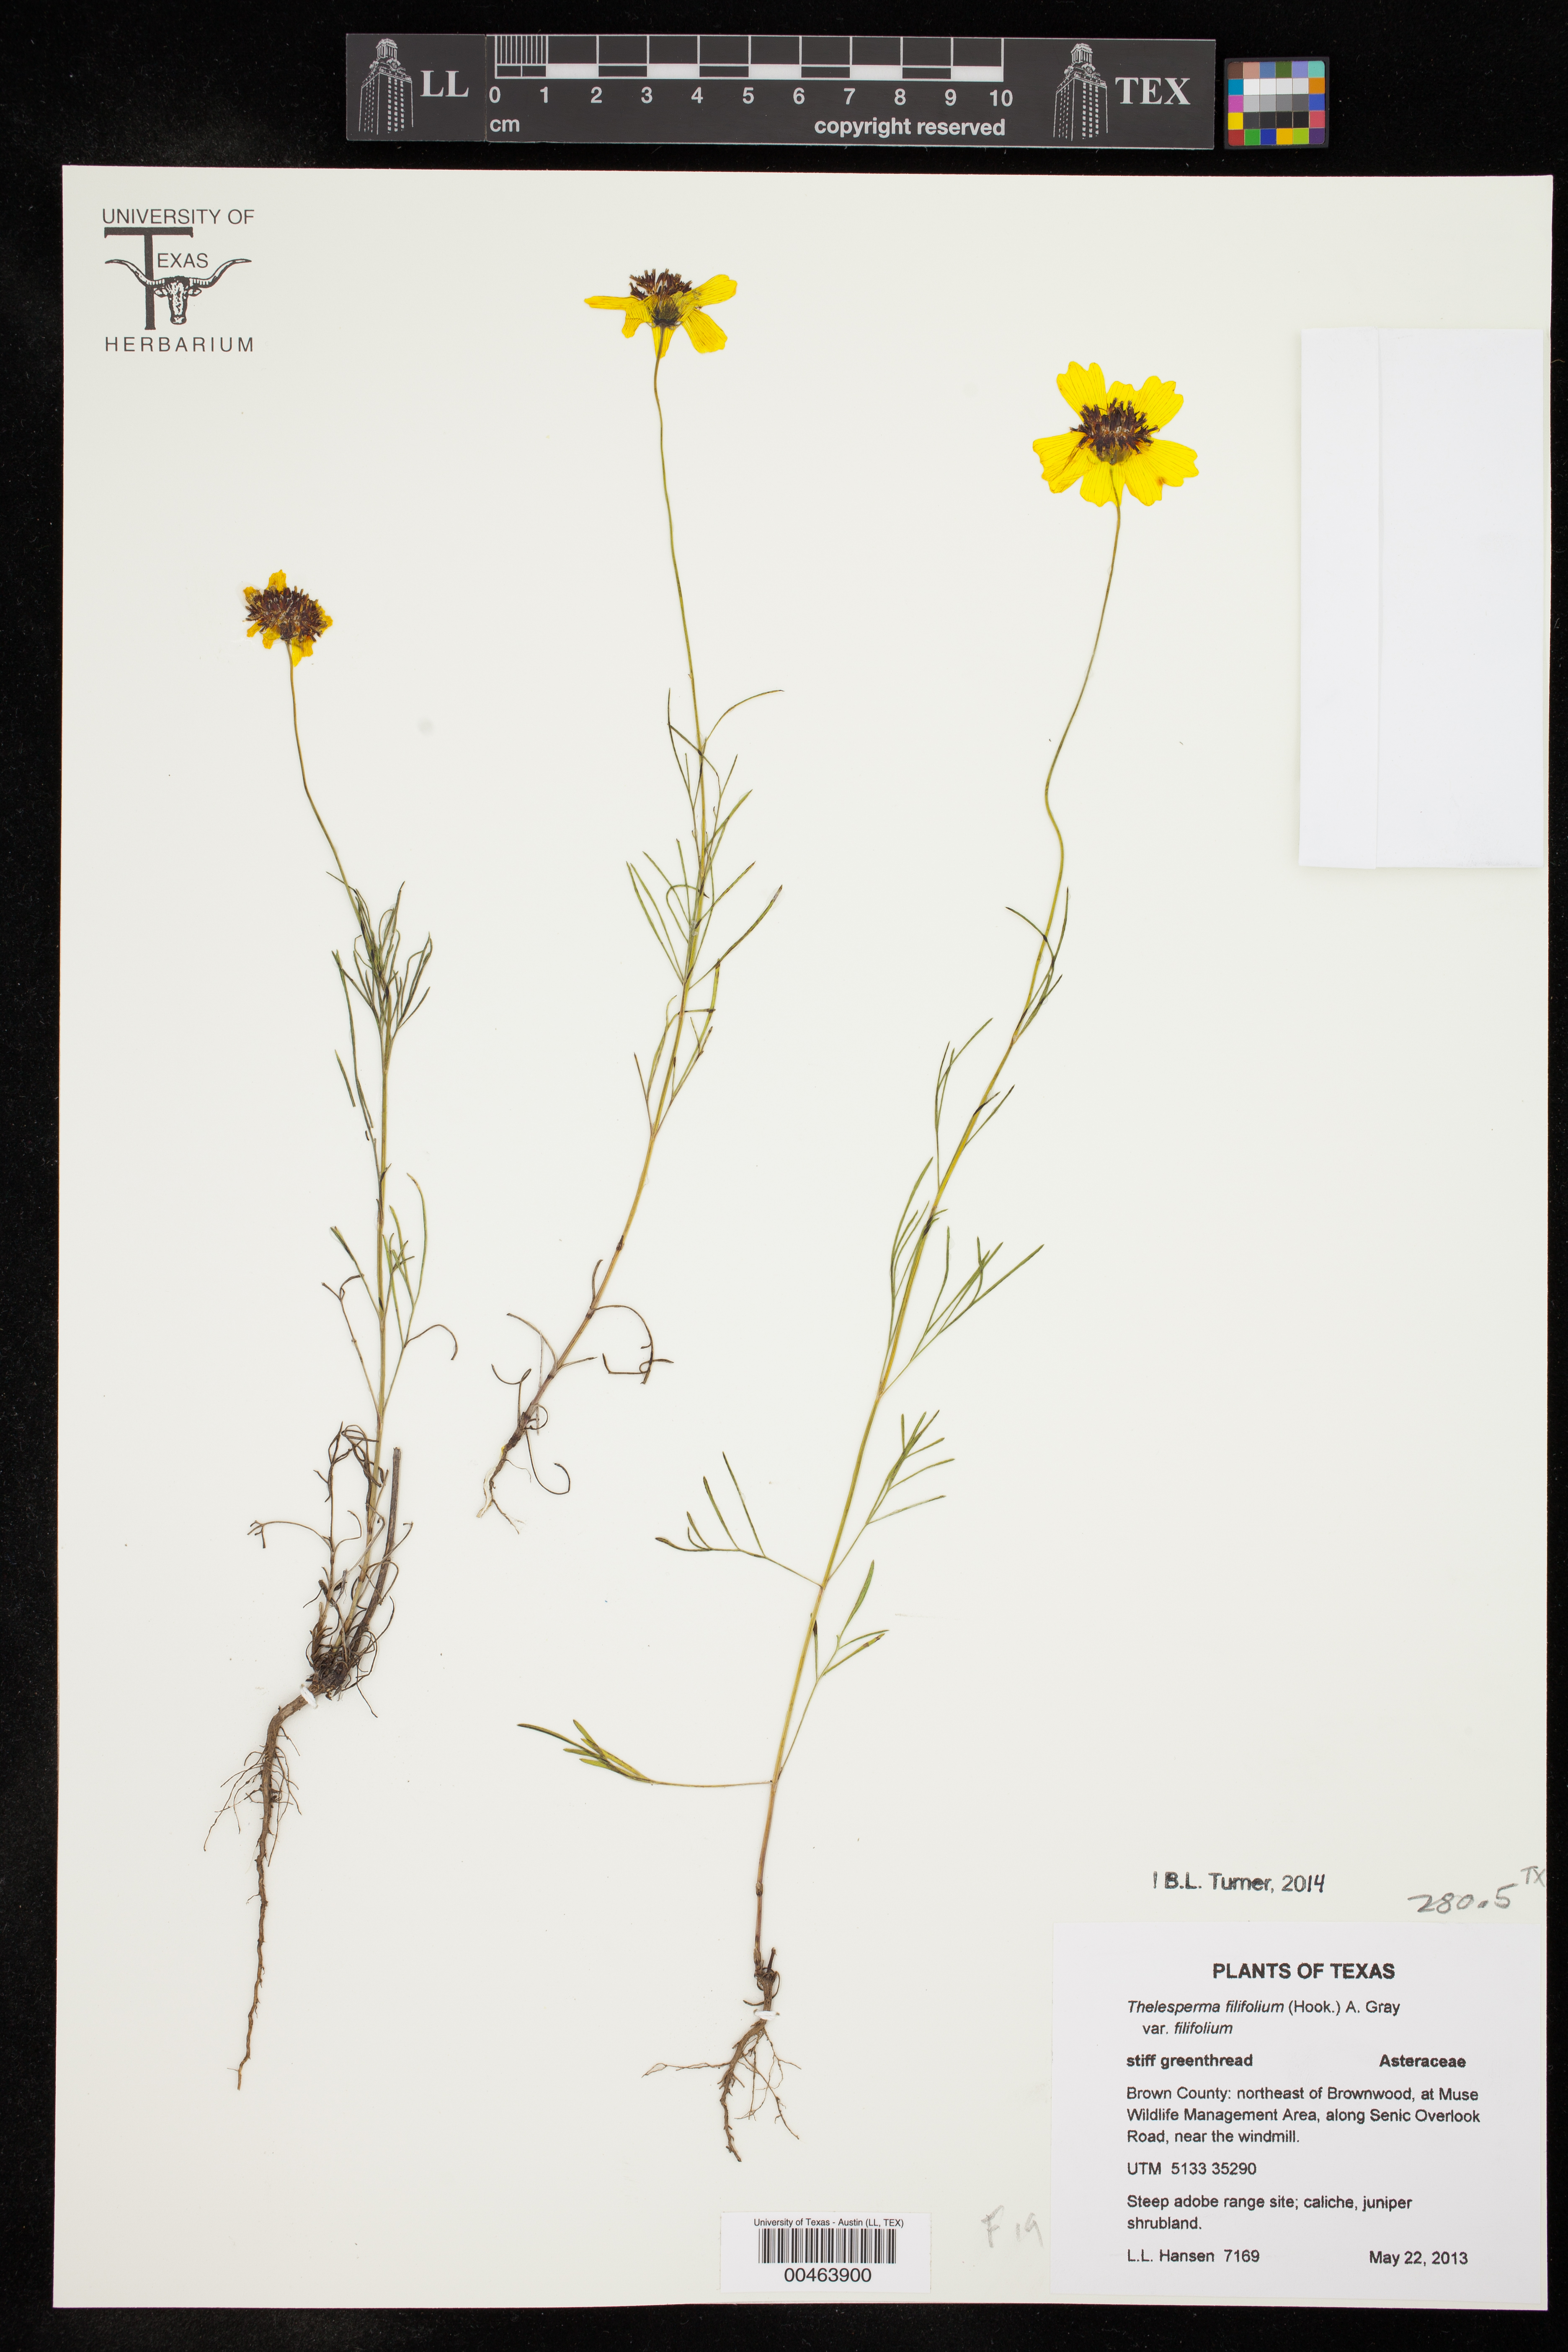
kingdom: Plantae
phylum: Tracheophyta
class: Magnoliopsida
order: Asterales
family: Asteraceae
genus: Thelesperma
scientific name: Thelesperma filifolium
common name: Stiff greenthread
